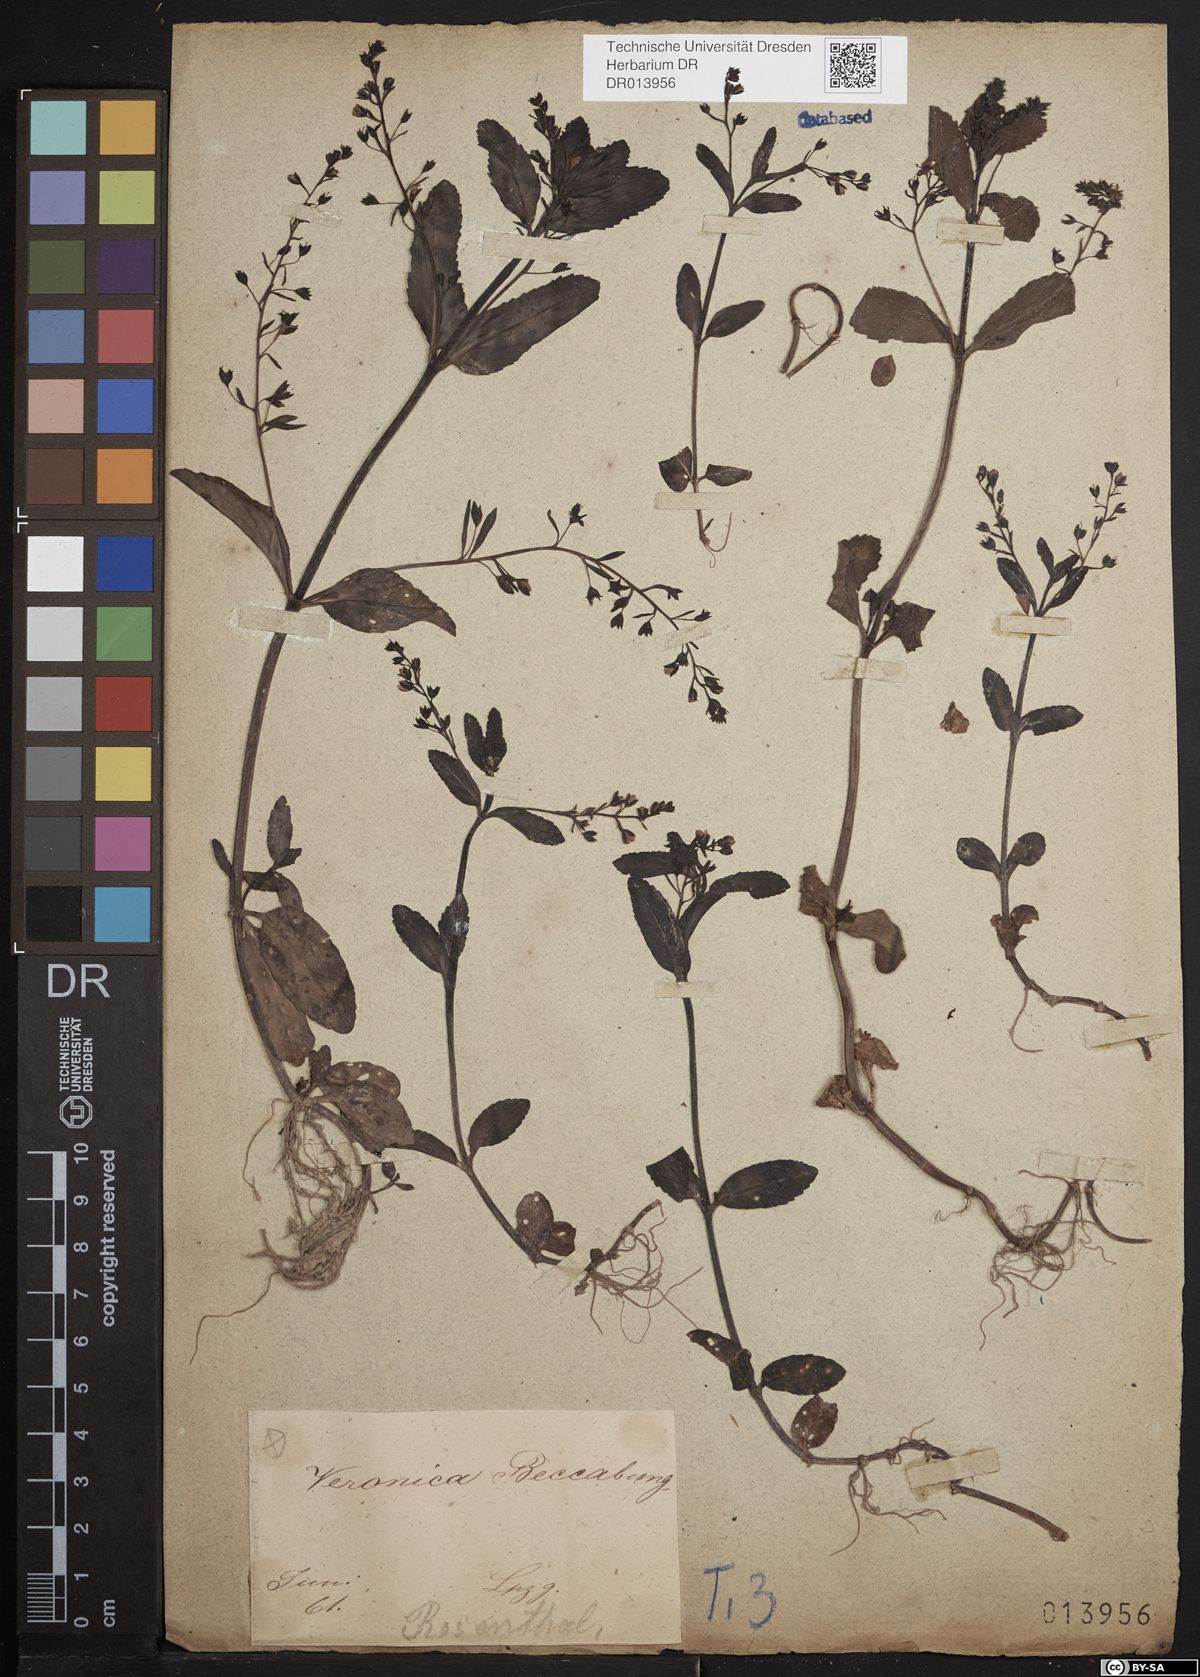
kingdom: Plantae
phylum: Tracheophyta
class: Magnoliopsida
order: Lamiales
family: Plantaginaceae
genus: Veronica
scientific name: Veronica beccabunga
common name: Brooklime
